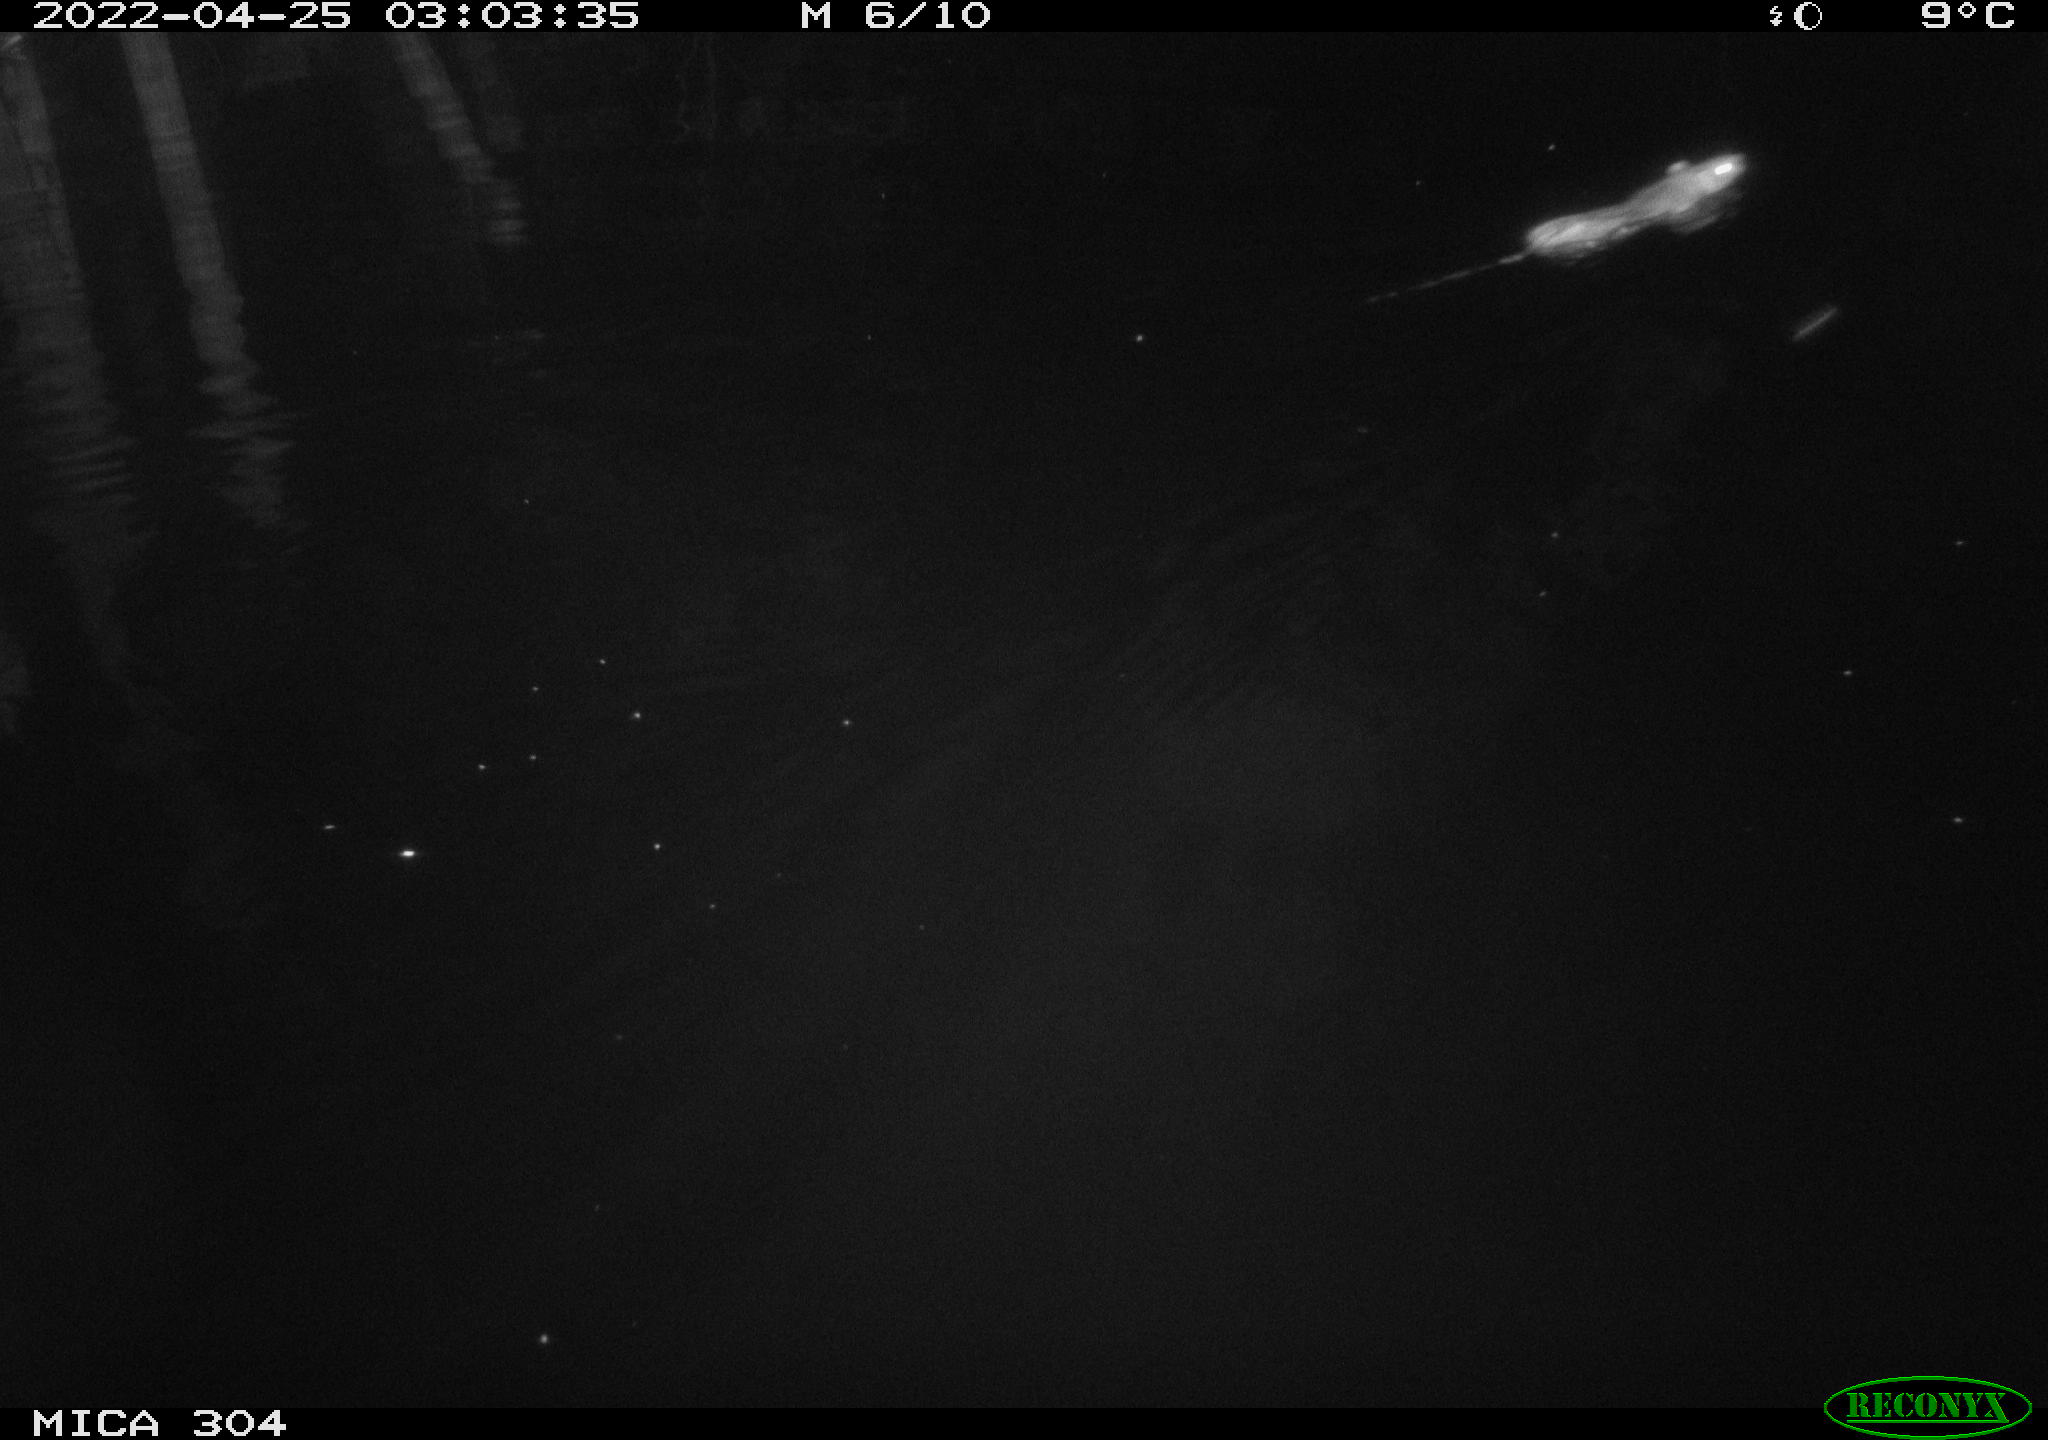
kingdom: Animalia
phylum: Chordata
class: Mammalia
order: Rodentia
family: Muridae
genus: Rattus
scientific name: Rattus norvegicus
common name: Brown rat
